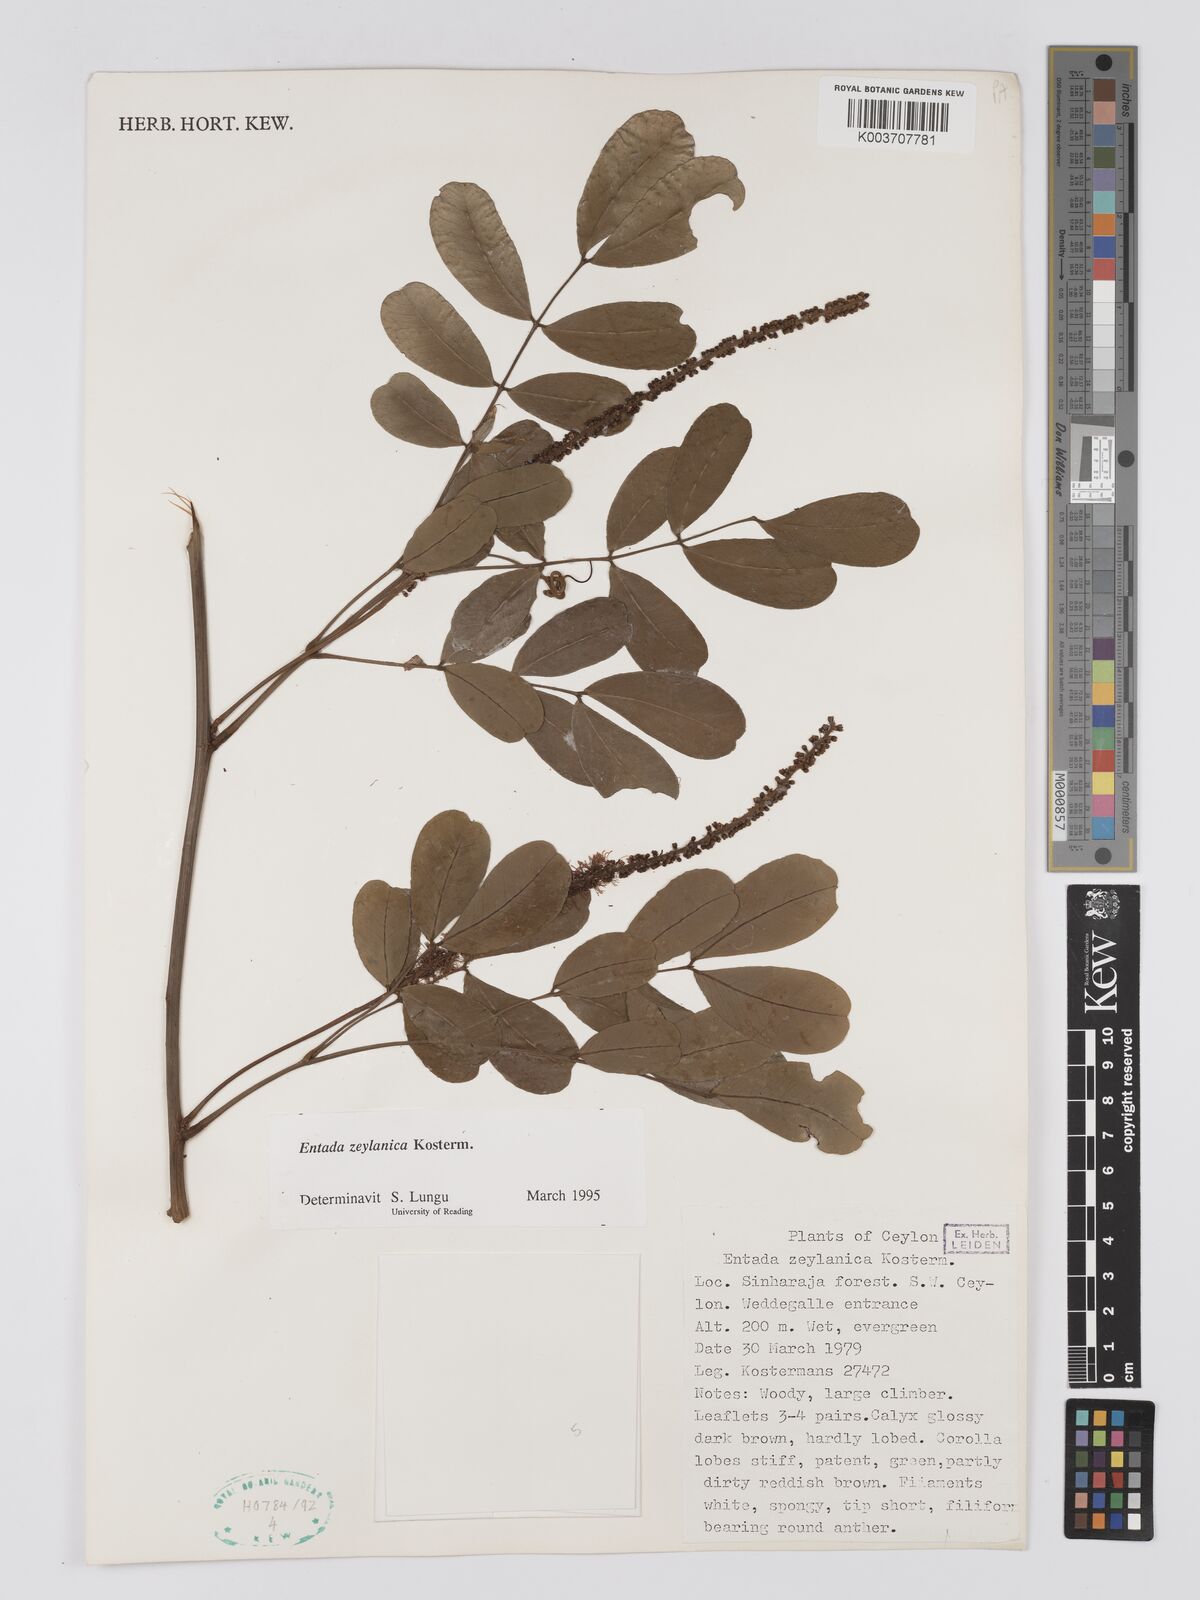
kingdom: Plantae
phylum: Tracheophyta
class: Magnoliopsida
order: Fabales
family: Fabaceae
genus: Entada
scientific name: Entada rheedei
